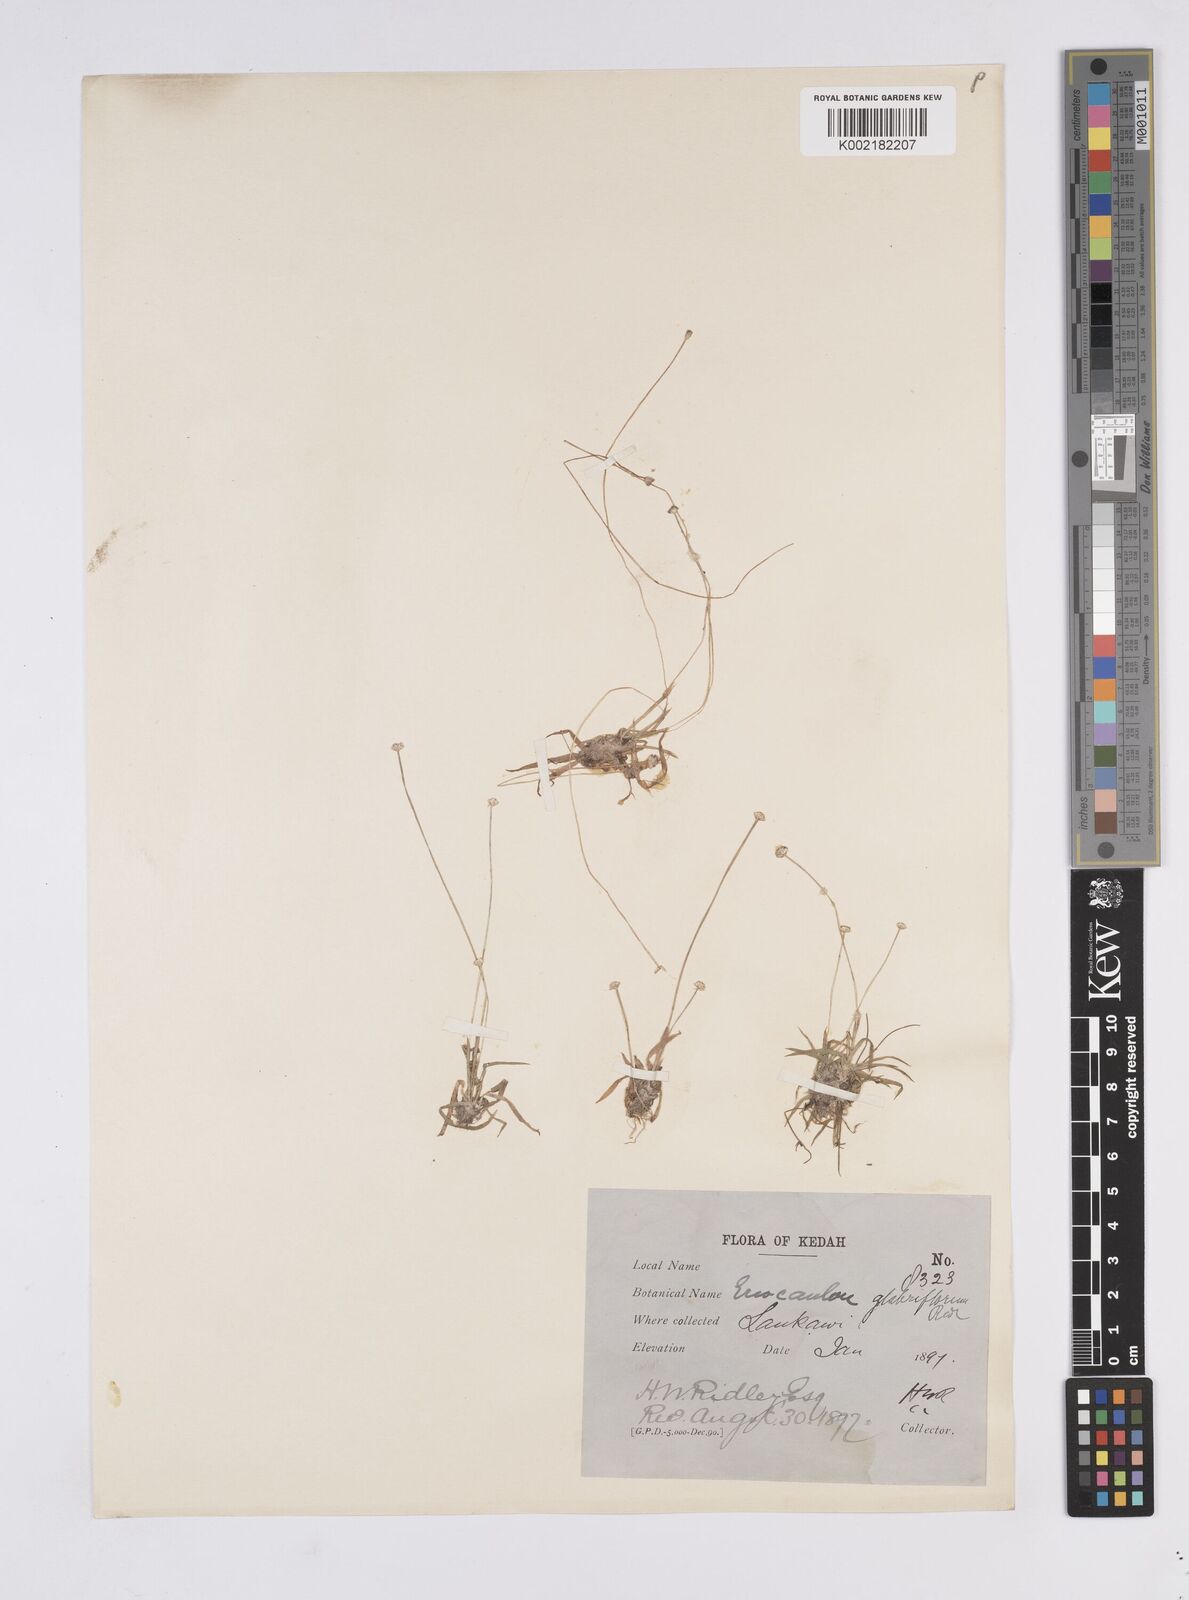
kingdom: Plantae
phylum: Tracheophyta
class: Liliopsida
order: Poales
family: Eriocaulaceae
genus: Eriocaulon
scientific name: Eriocaulon truncatum
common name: Short pipe-wort
